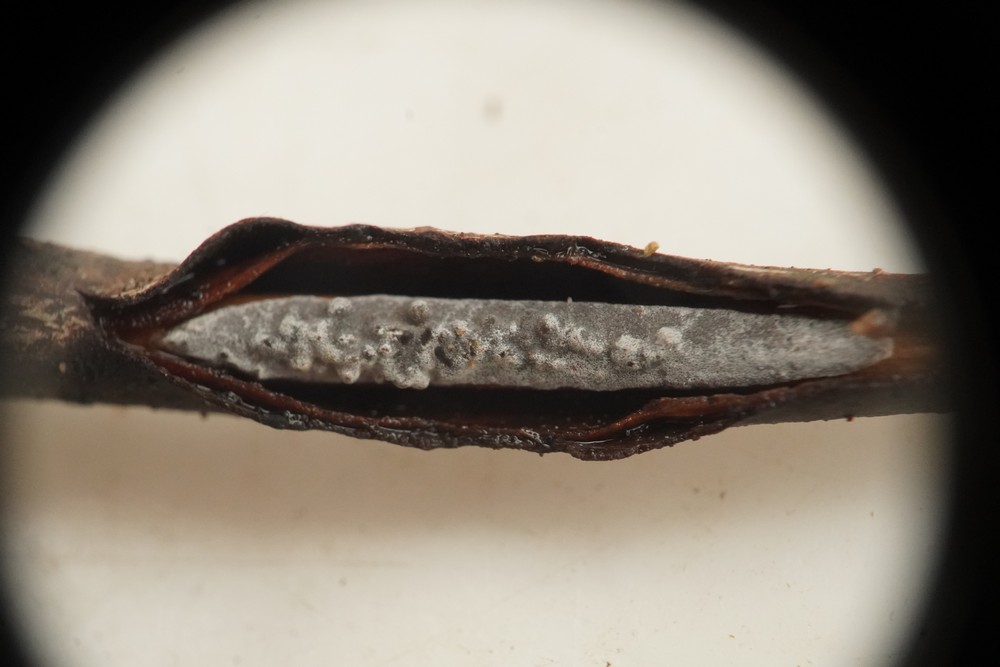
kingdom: Fungi
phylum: Basidiomycota
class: Agaricomycetes
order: Russulales
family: Peniophoraceae
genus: Peniophora
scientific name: Peniophora lycii
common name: grynet voksskind
